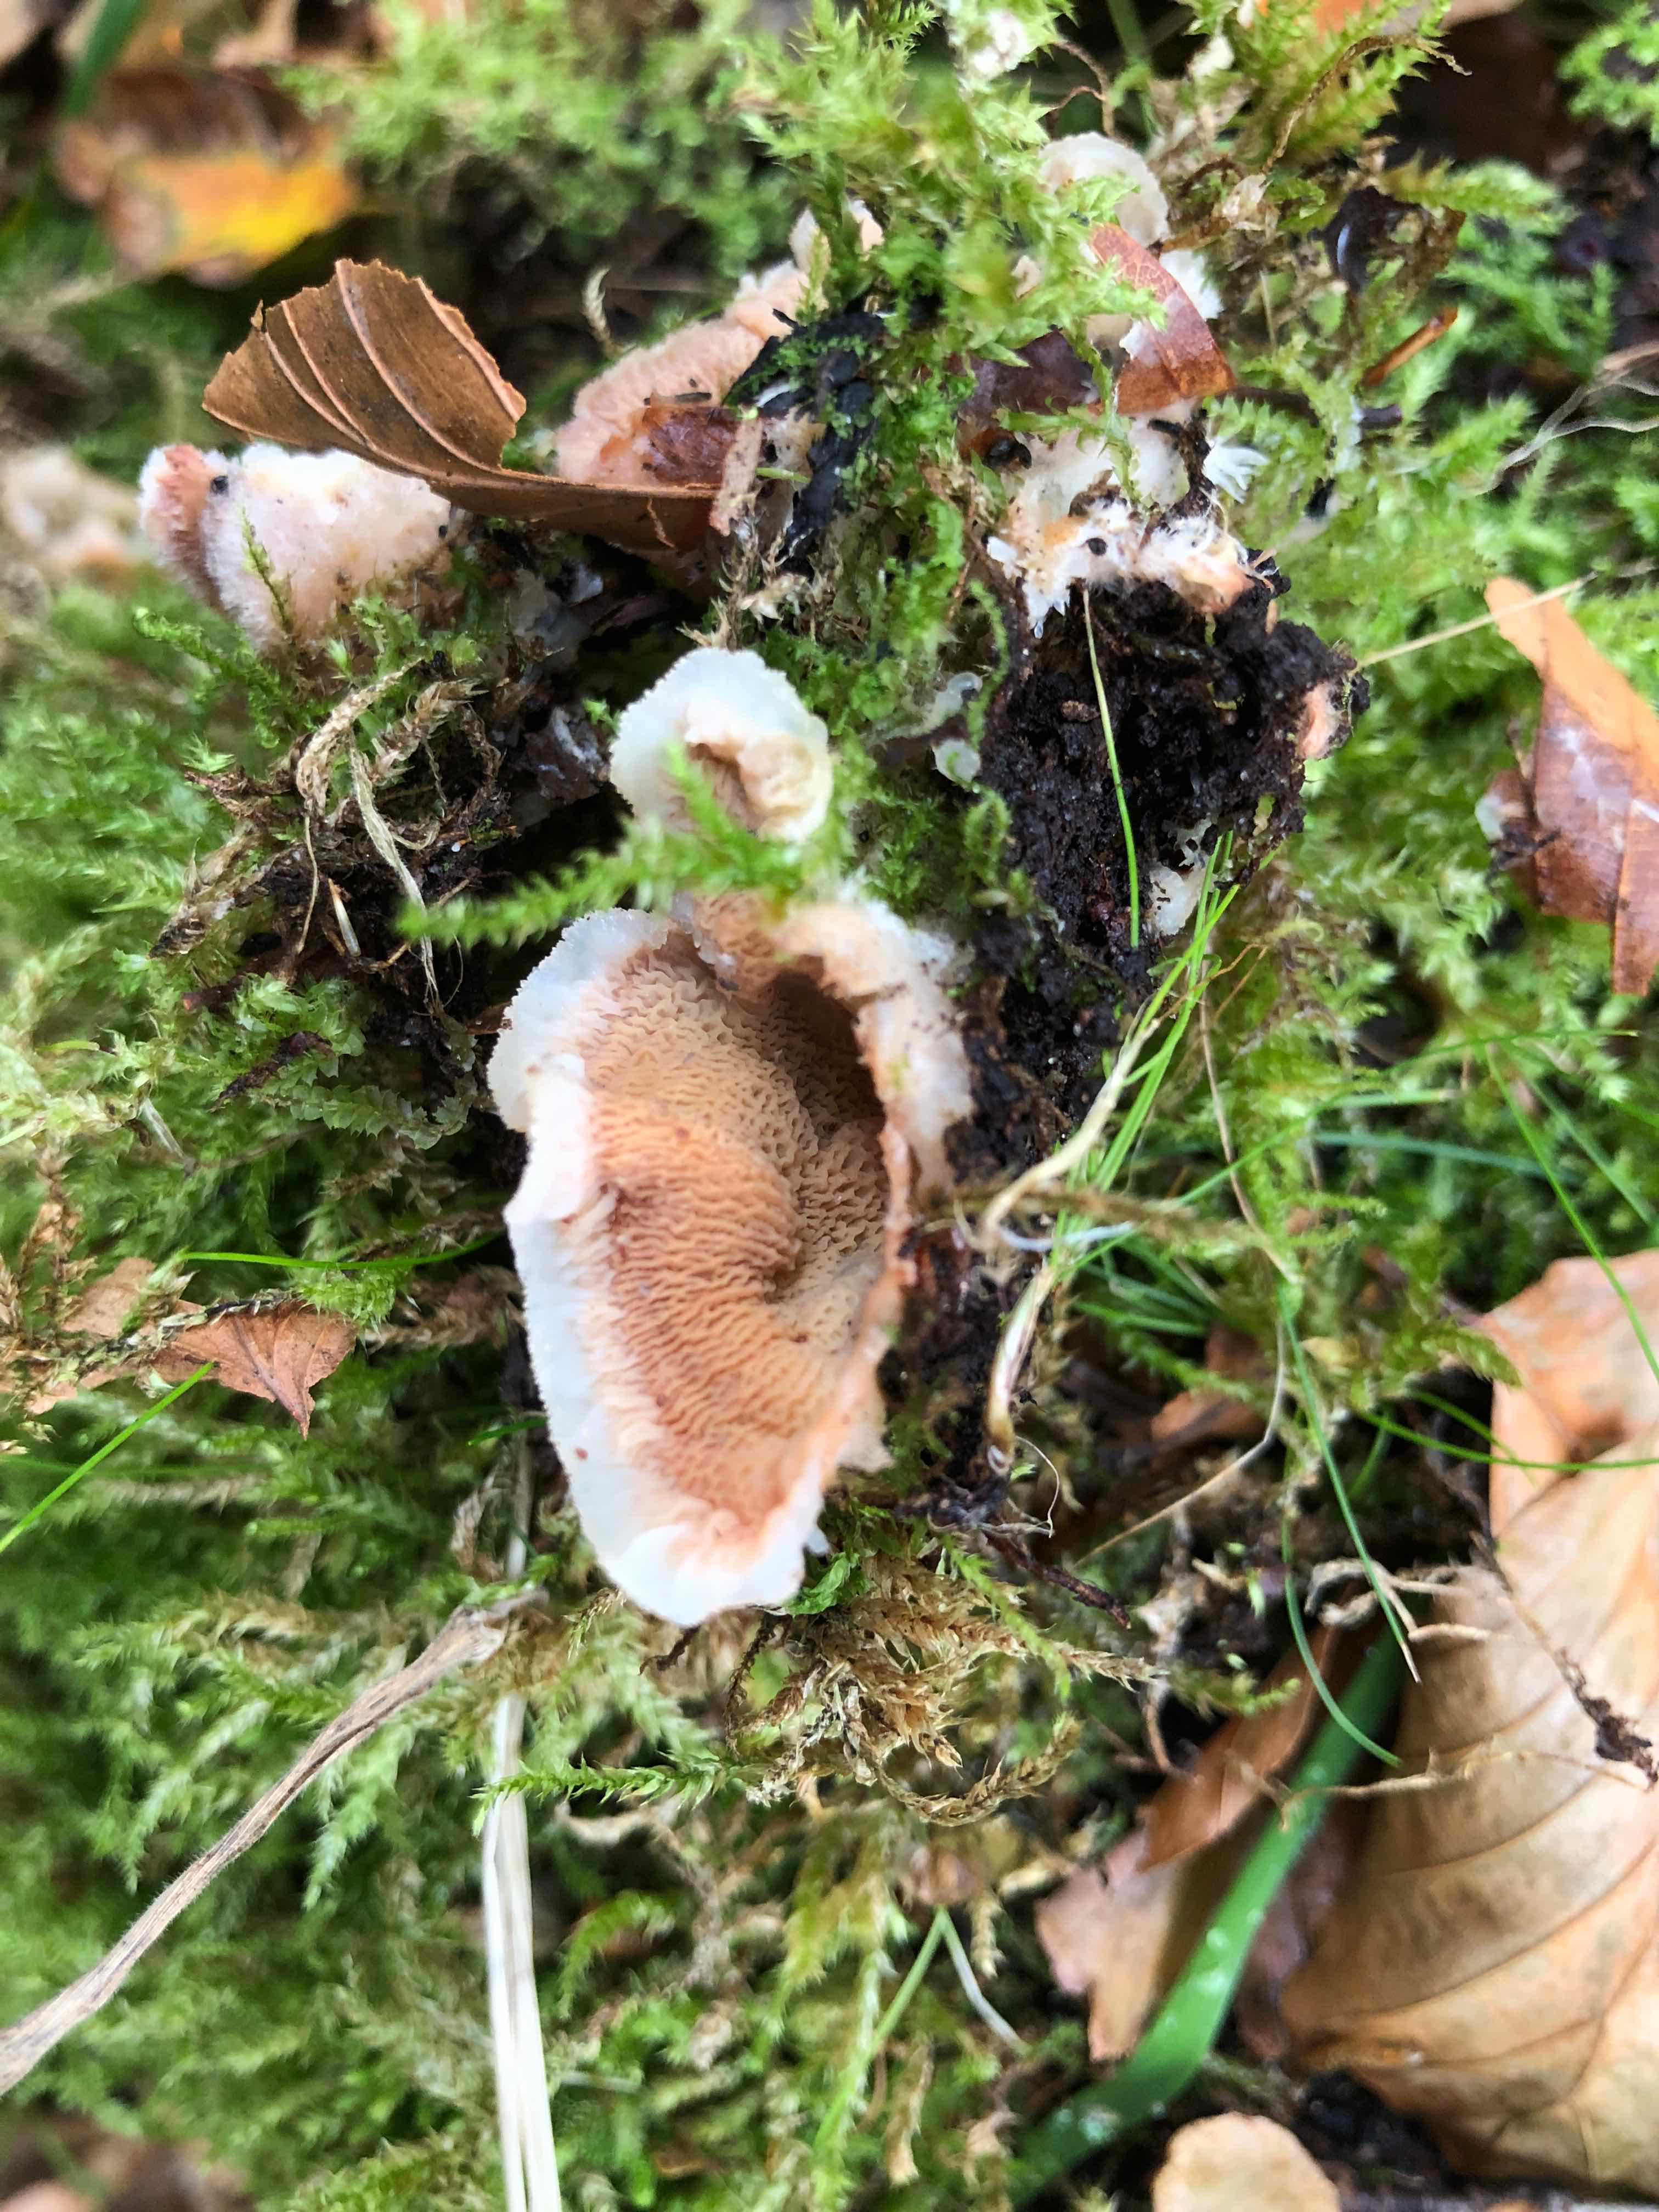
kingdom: Fungi
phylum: Basidiomycota
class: Agaricomycetes
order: Polyporales
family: Meruliaceae
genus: Phlebia
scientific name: Phlebia tremellosa
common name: bævrende åresvamp
